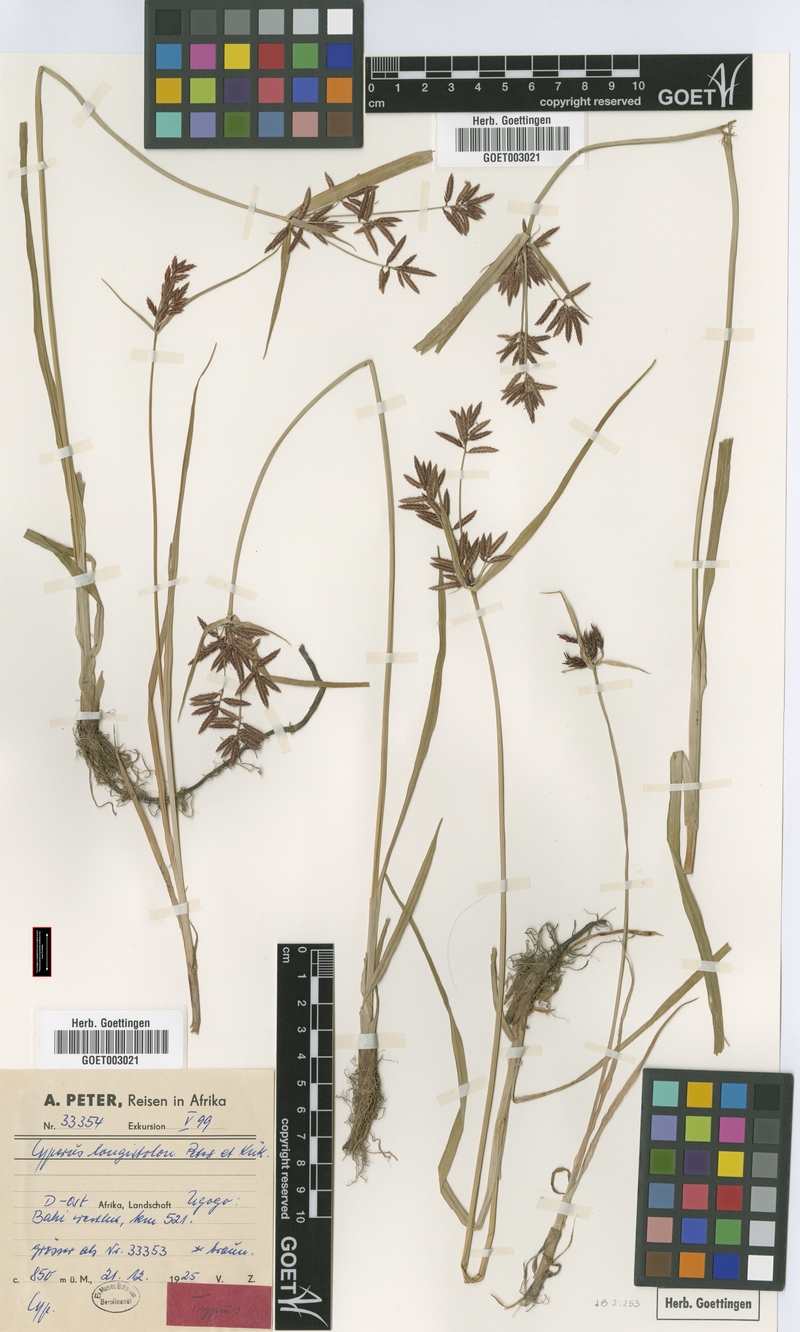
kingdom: Plantae
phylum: Tracheophyta
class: Liliopsida
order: Poales
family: Cyperaceae
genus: Cyperus
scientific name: Cyperus chrysanthus
